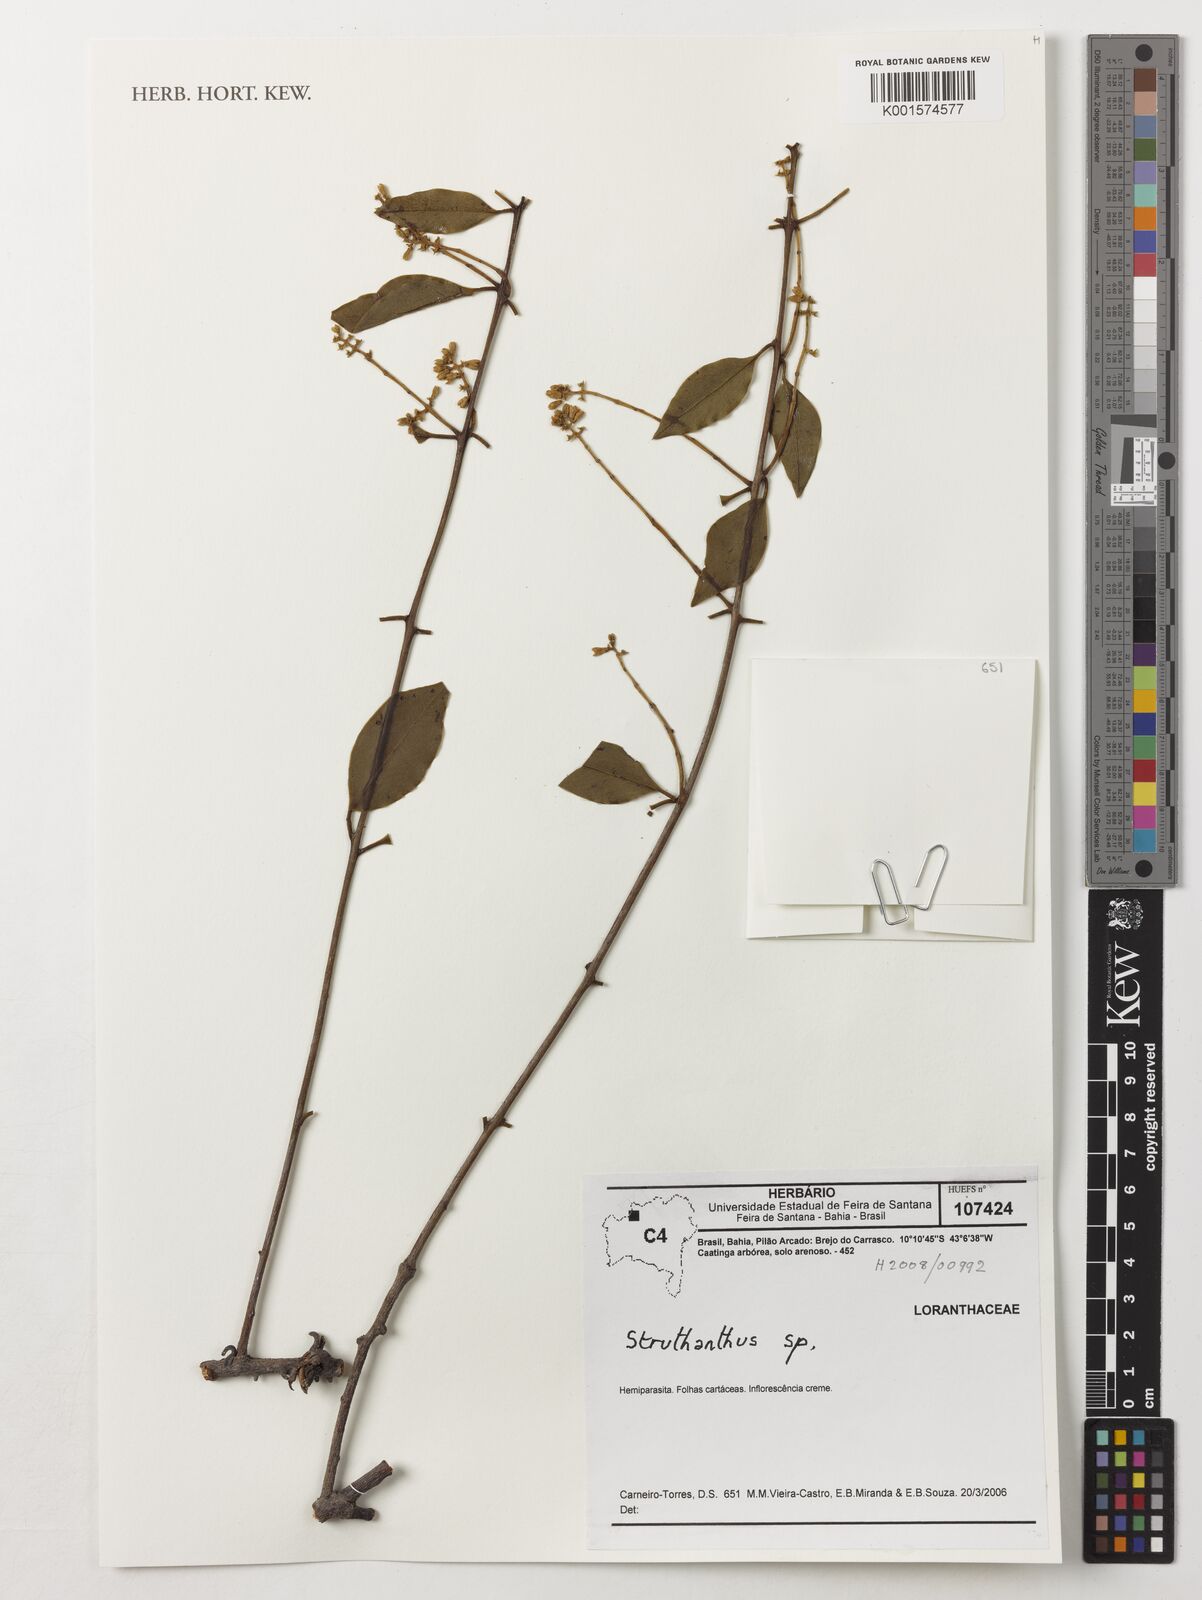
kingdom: Plantae
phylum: Tracheophyta
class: Magnoliopsida
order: Santalales
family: Loranthaceae
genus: Struthanthus
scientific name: Struthanthus
